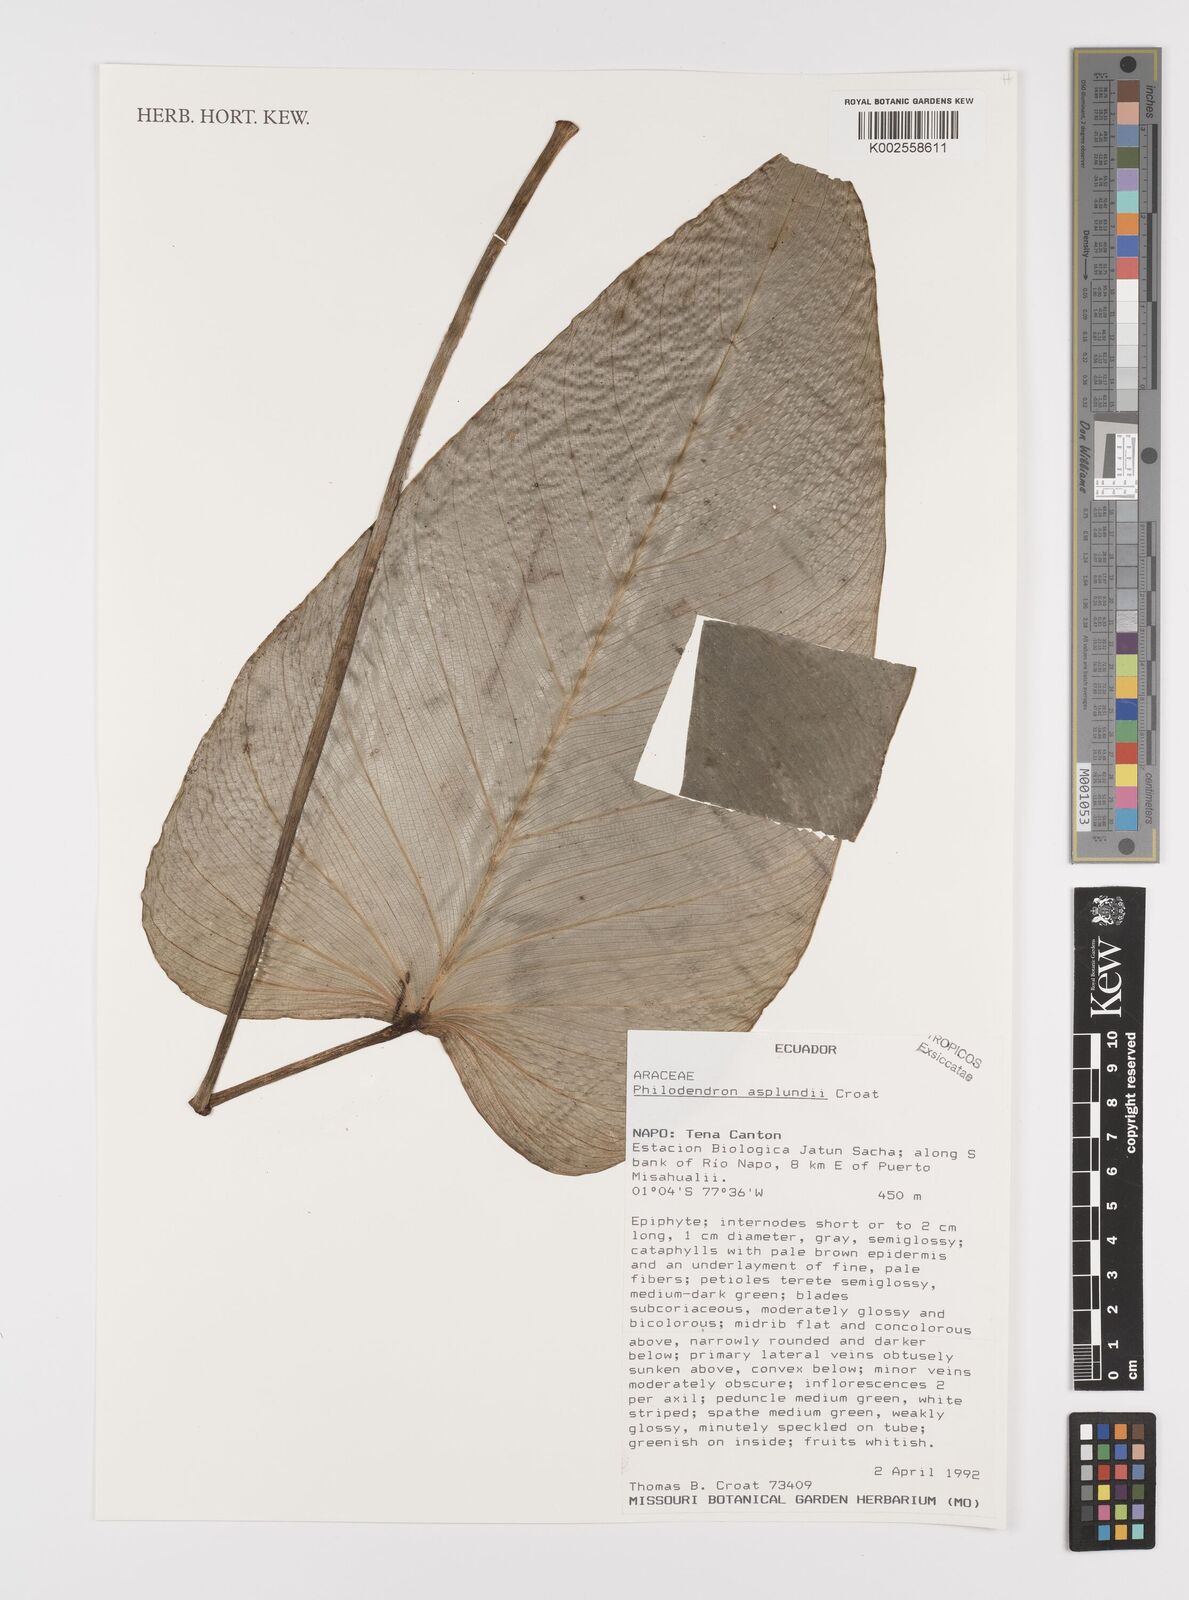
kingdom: Plantae
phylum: Tracheophyta
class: Liliopsida
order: Alismatales
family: Araceae
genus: Philodendron
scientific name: Philodendron asplundii
